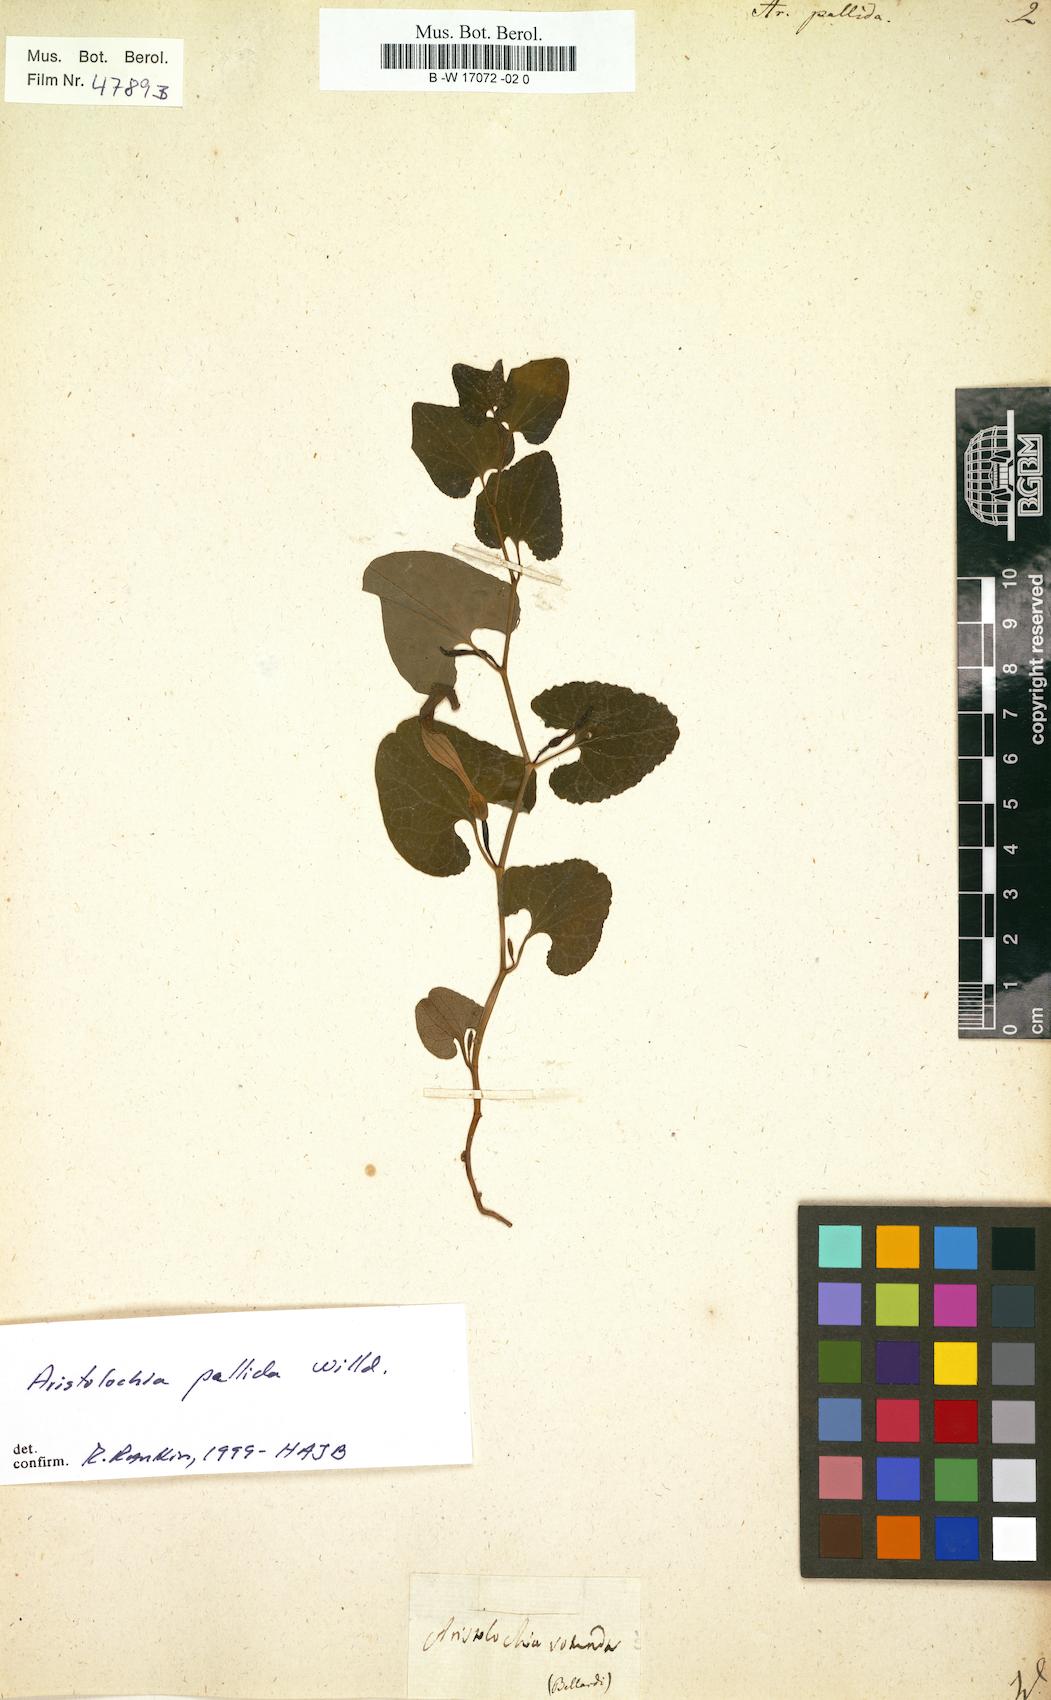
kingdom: Plantae
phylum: Tracheophyta
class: Magnoliopsida
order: Piperales
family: Aristolochiaceae
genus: Aristolochia
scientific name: Aristolochia pallida
